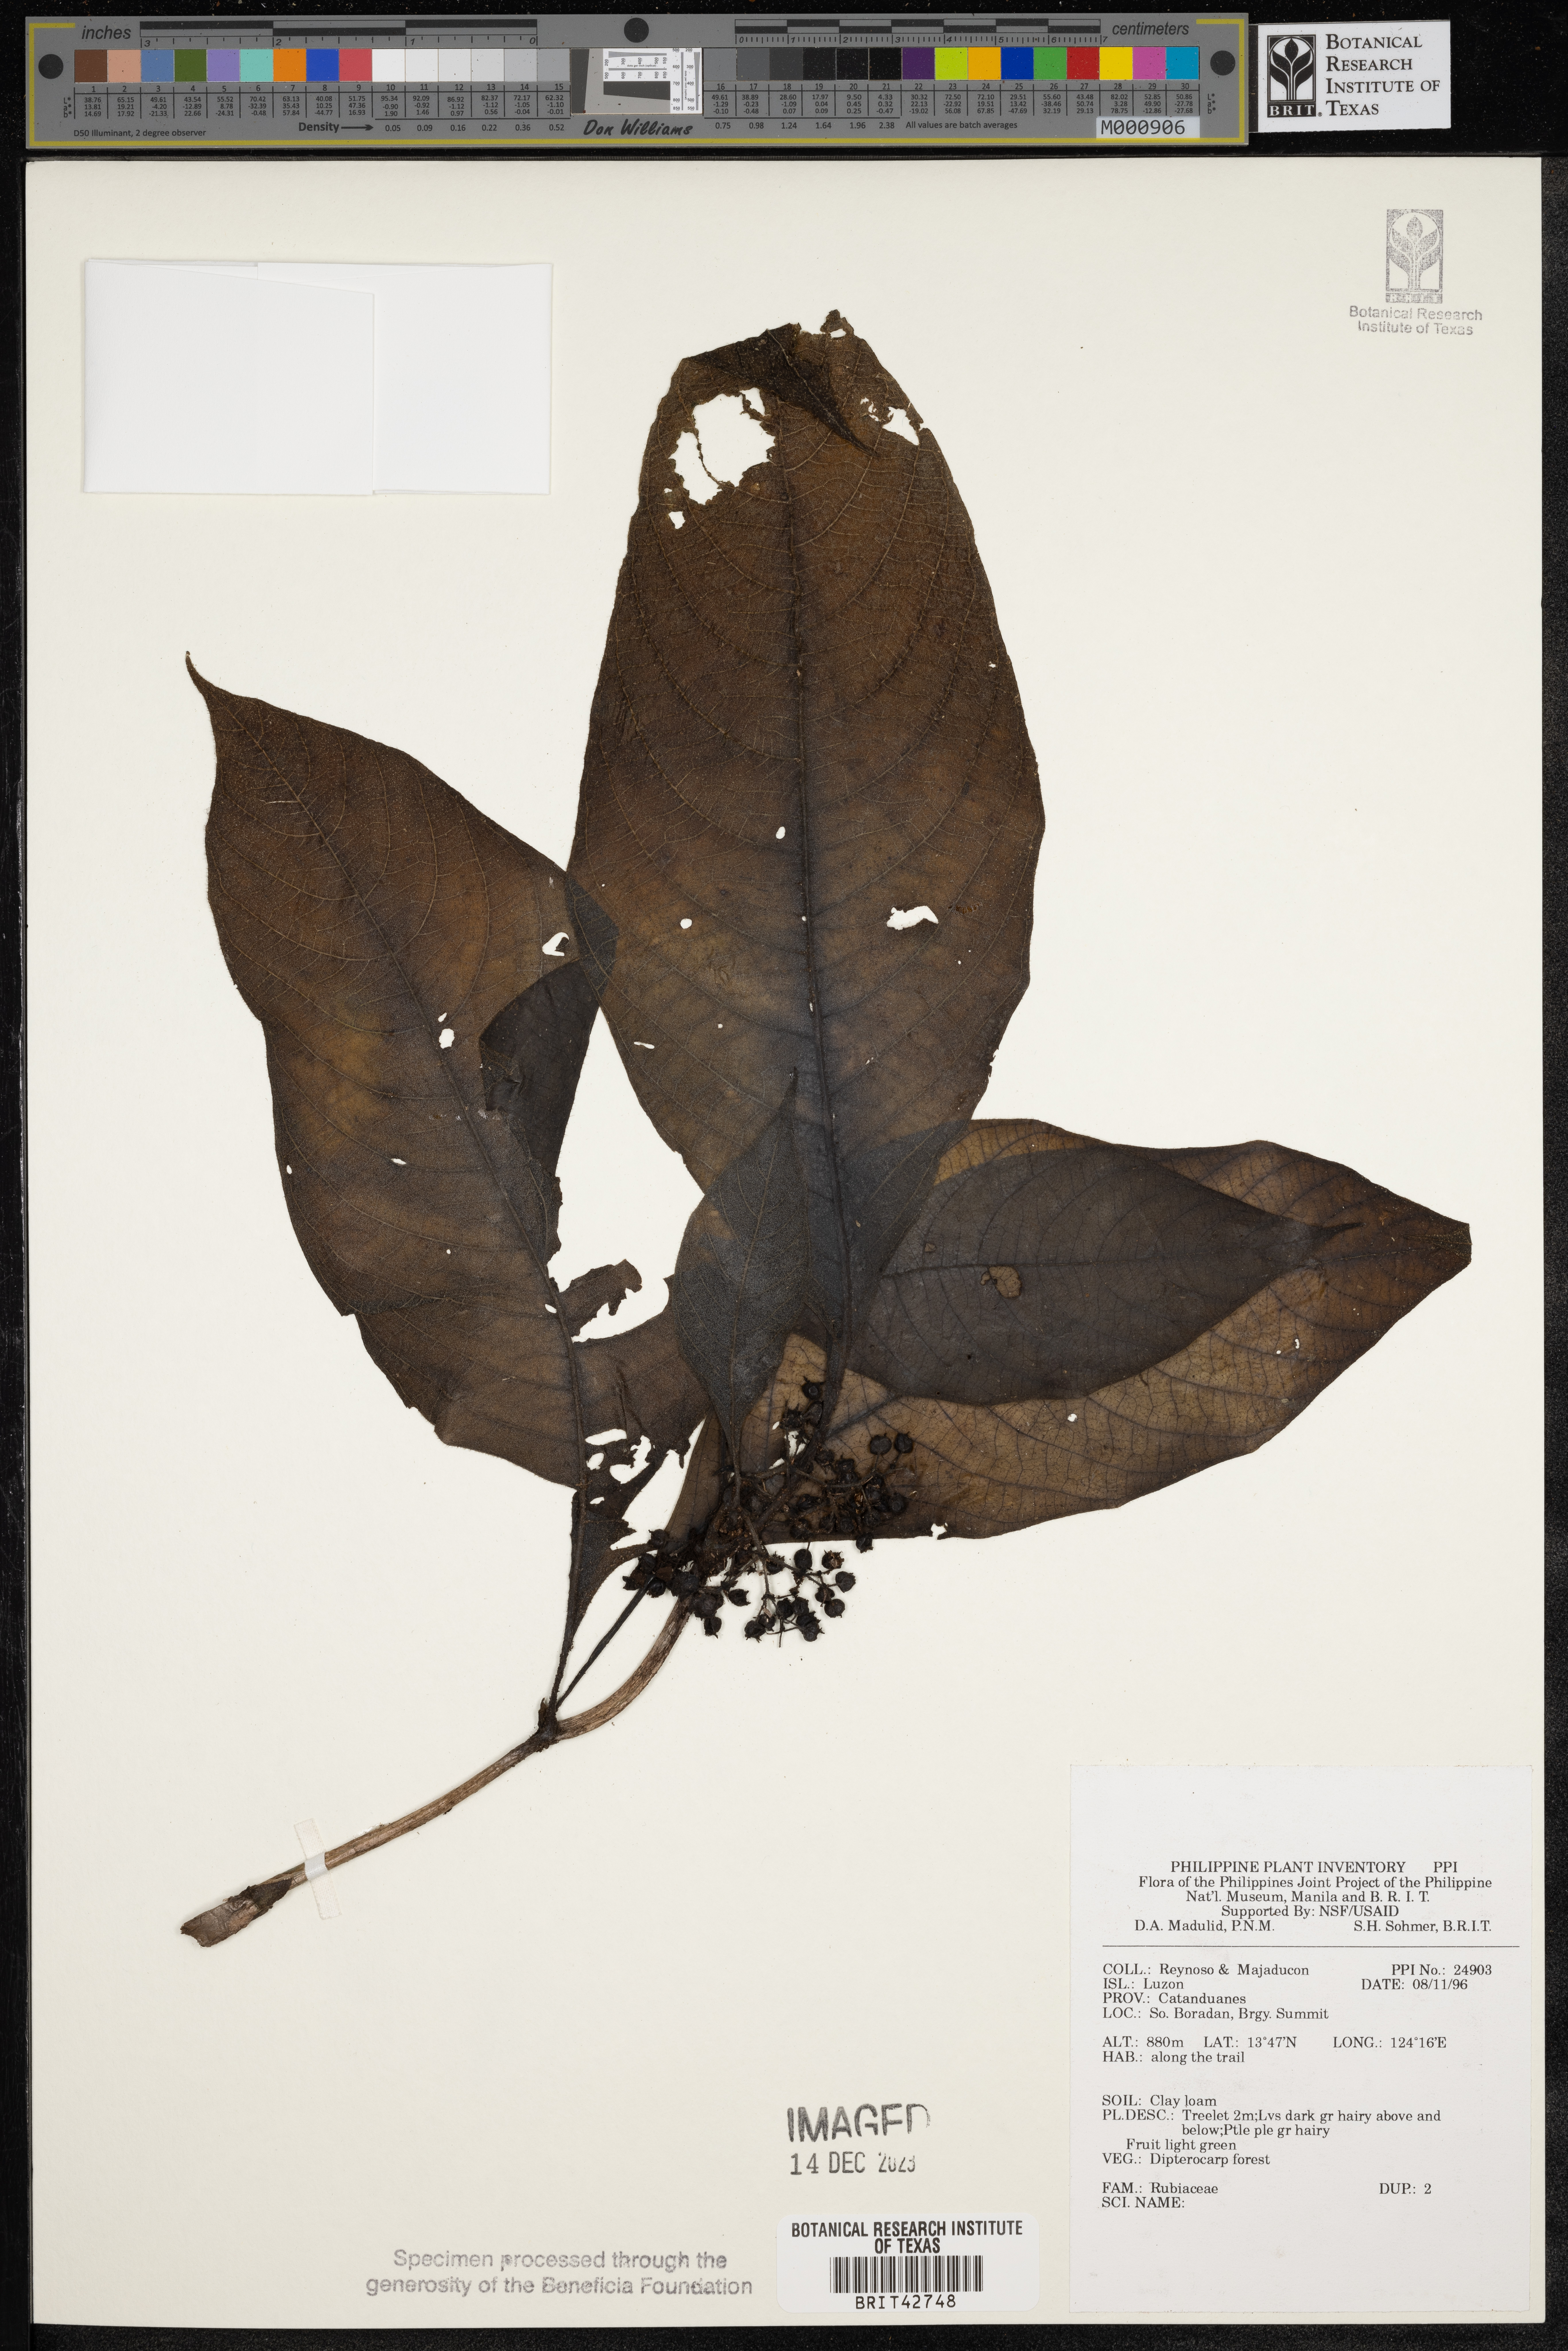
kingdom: Plantae
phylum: Tracheophyta
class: Magnoliopsida
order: Gentianales
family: Rubiaceae
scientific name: Rubiaceae
